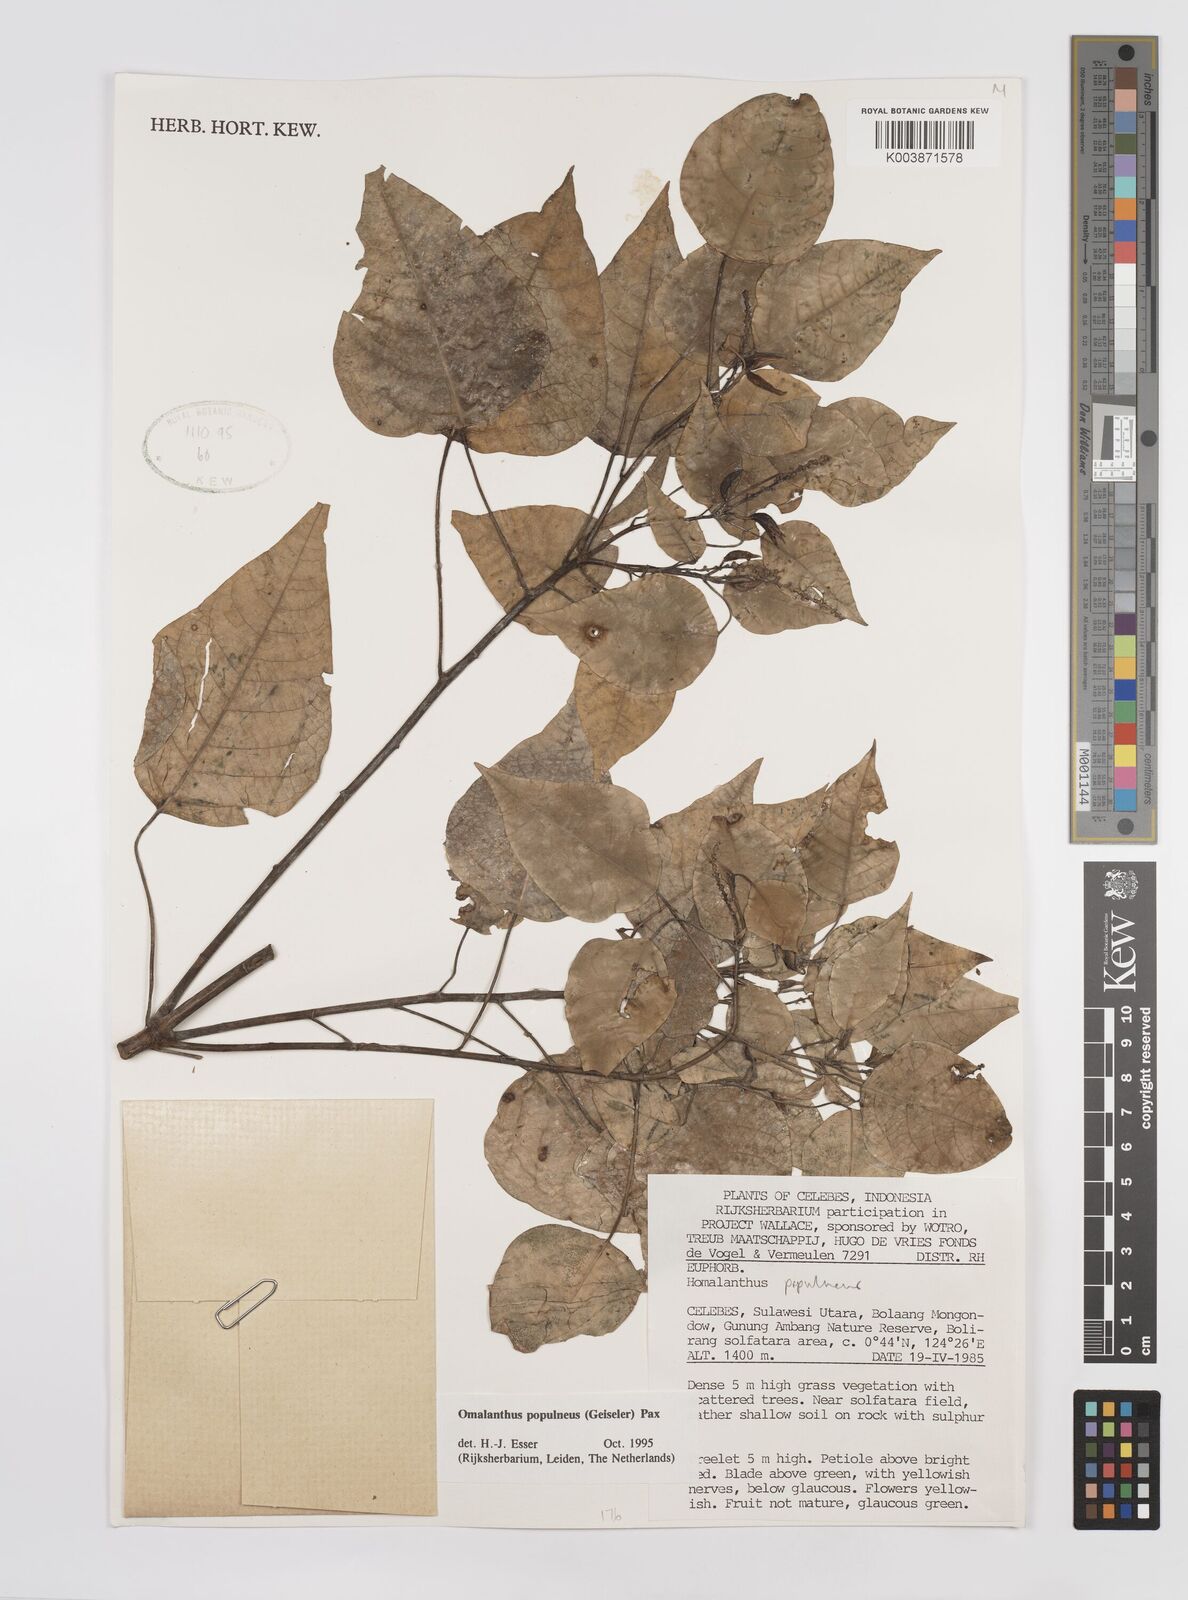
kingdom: Plantae
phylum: Tracheophyta
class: Magnoliopsida
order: Malpighiales
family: Euphorbiaceae
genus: Homalanthus
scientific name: Homalanthus populneus
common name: Spurge
